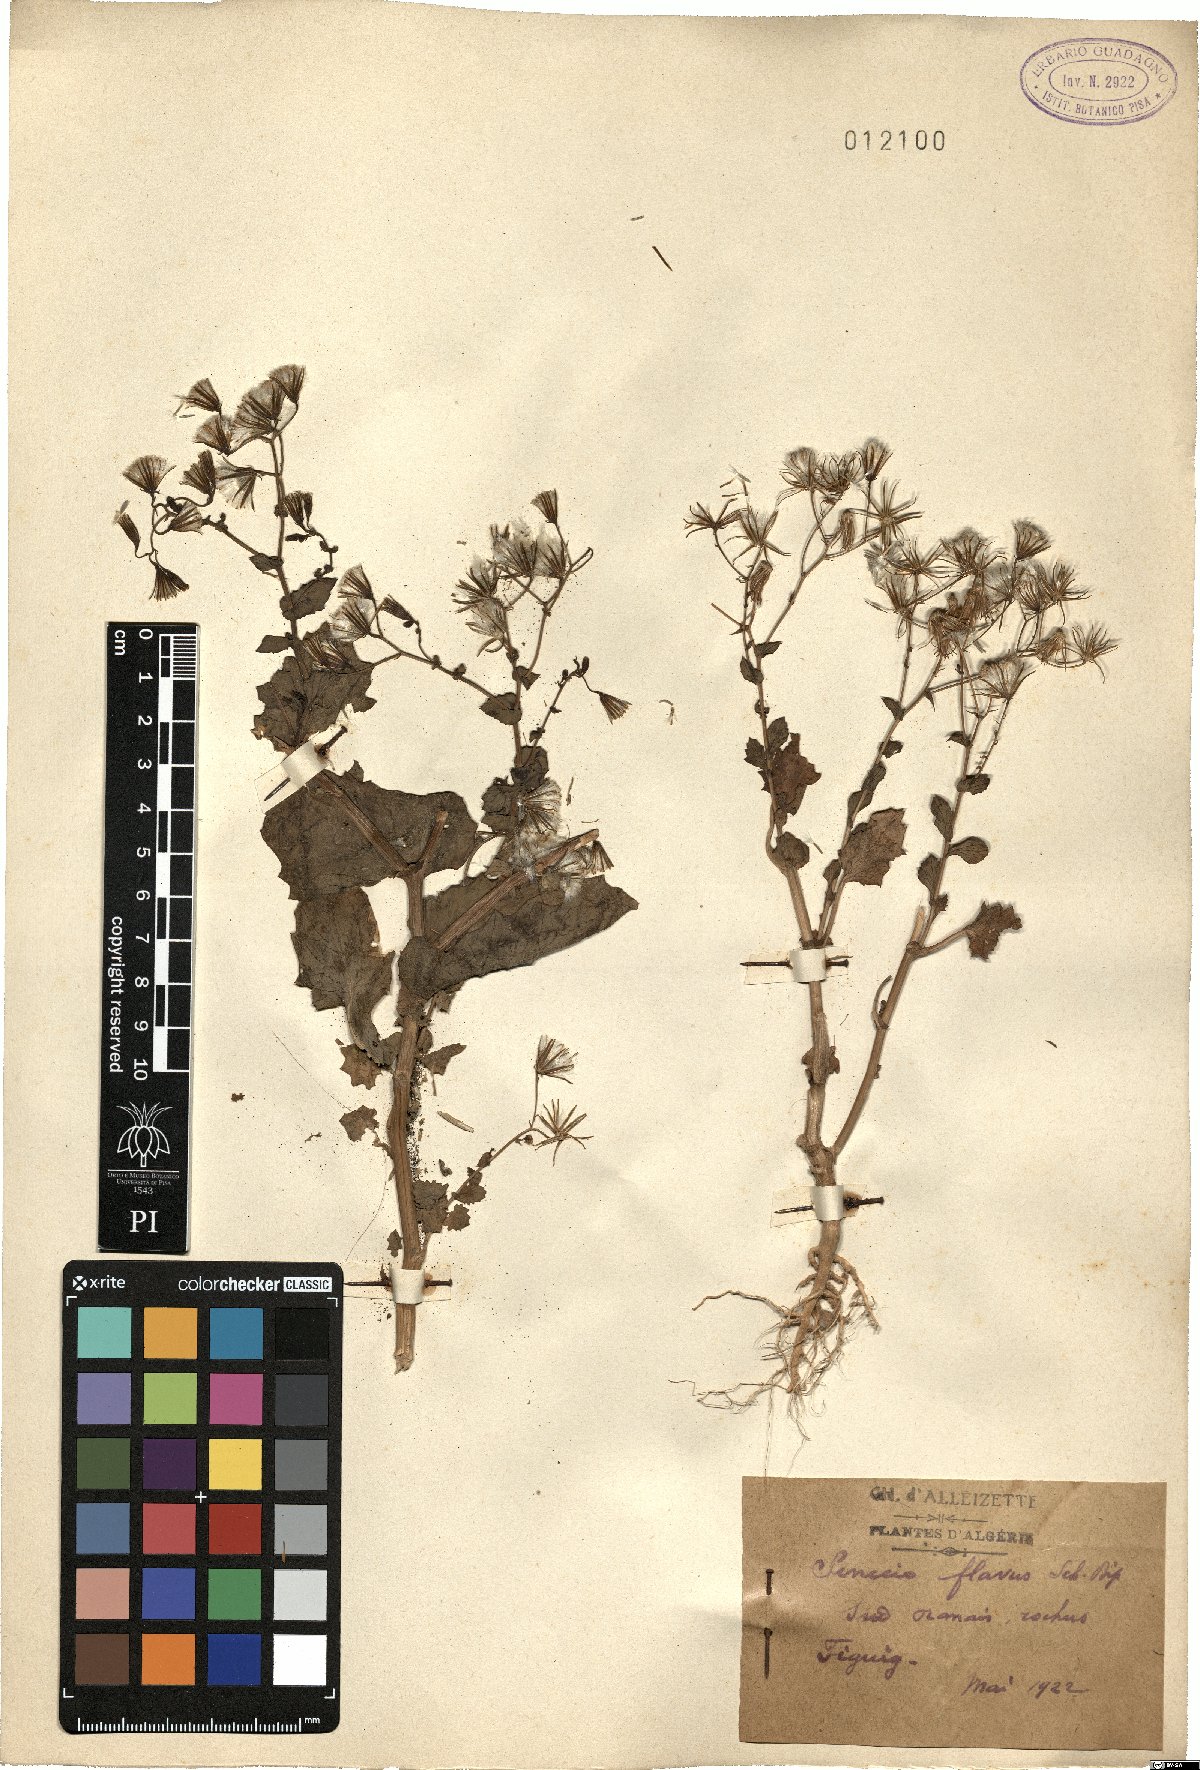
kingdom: Plantae
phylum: Tracheophyta
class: Magnoliopsida
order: Asterales
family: Asteraceae
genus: Senecio
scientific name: Senecio flavus
